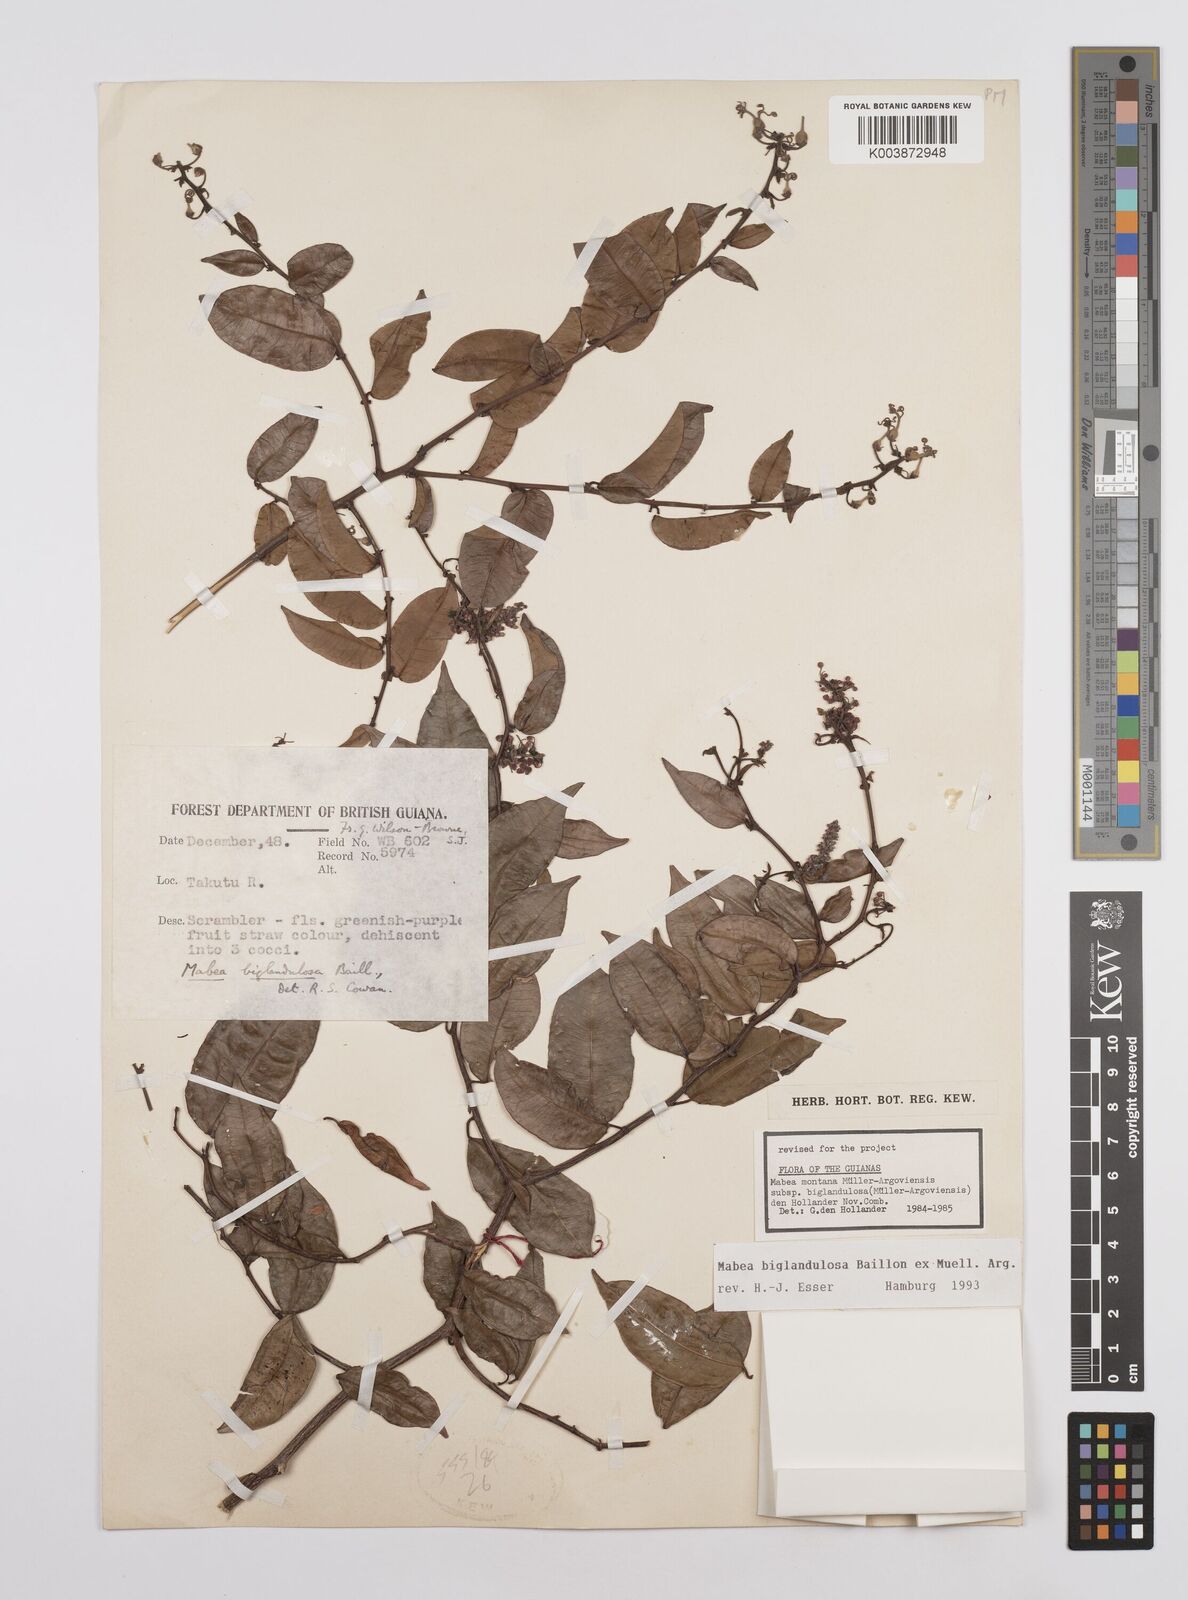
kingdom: Plantae
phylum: Tracheophyta
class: Magnoliopsida
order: Malpighiales
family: Euphorbiaceae
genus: Mabea
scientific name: Mabea biglandulosa
